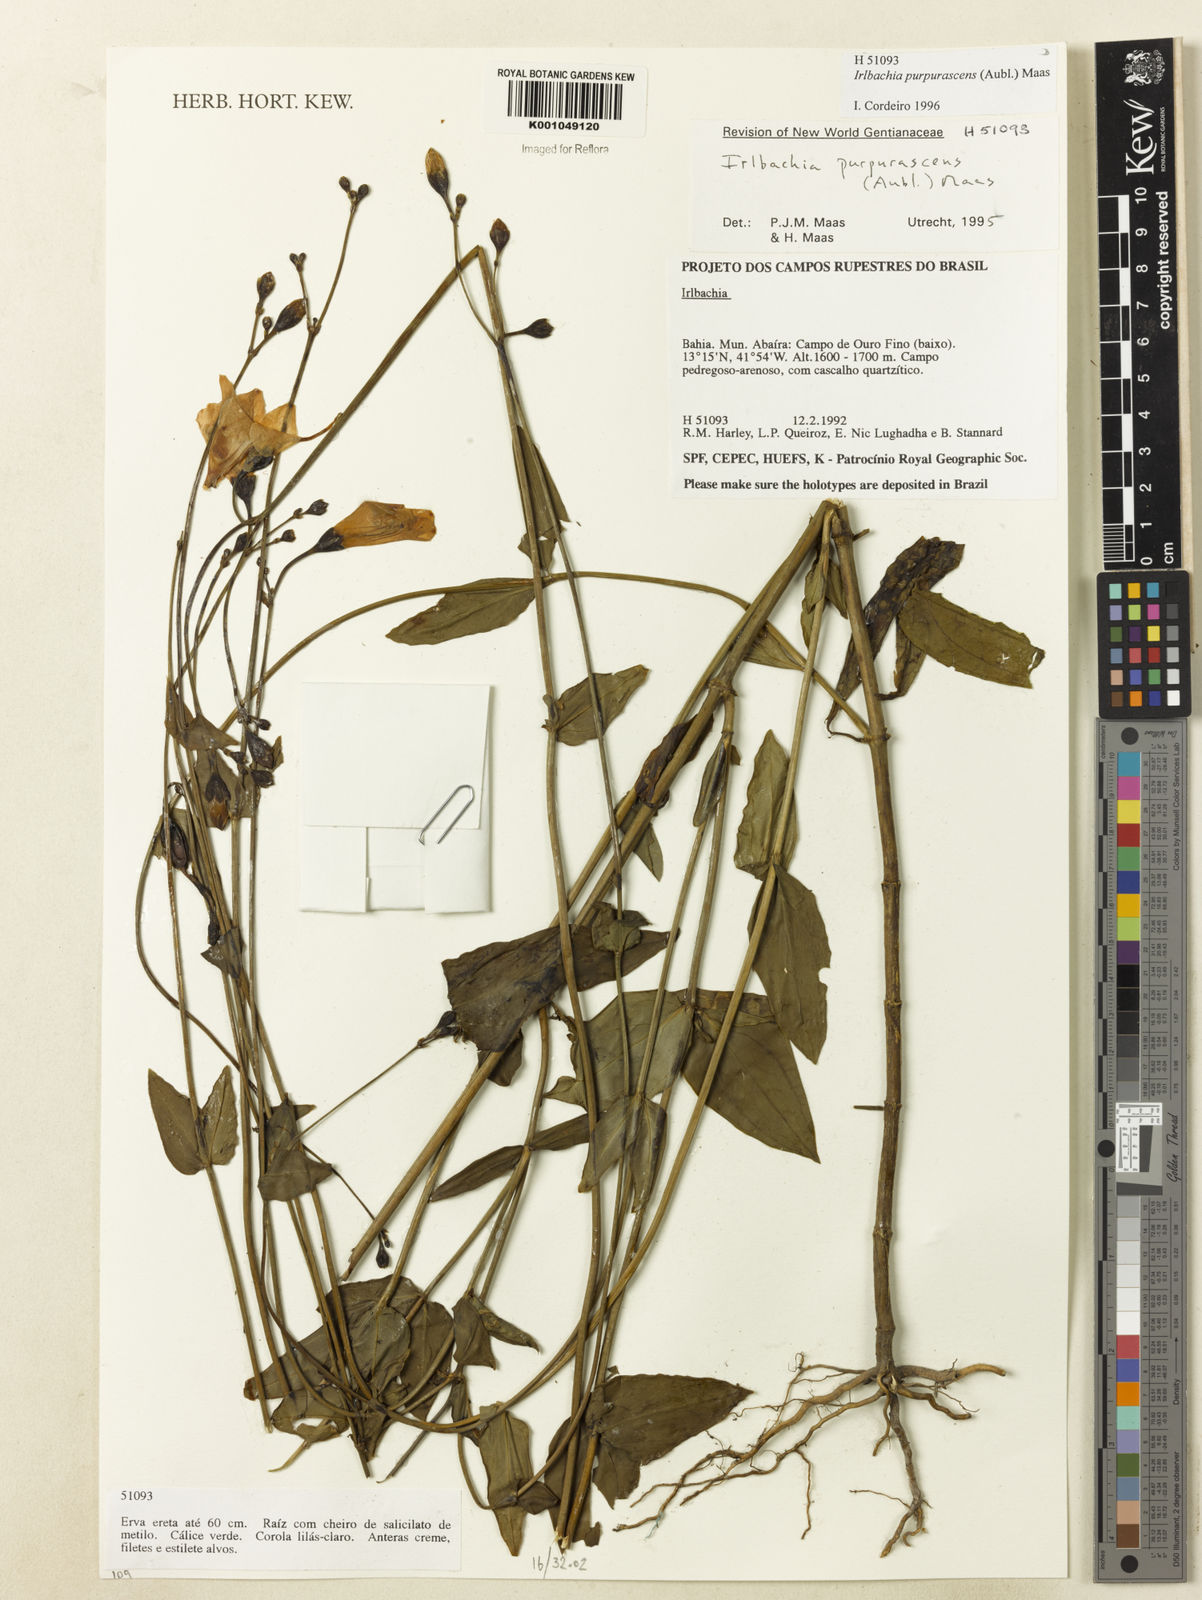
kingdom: Plantae
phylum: Tracheophyta
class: Magnoliopsida
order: Gentianales
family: Gentianaceae
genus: Chelonanthus
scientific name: Chelonanthus purpurascens
